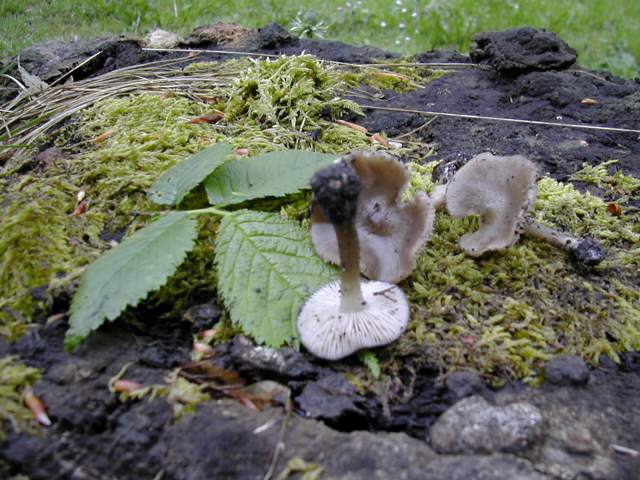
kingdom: Fungi
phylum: Basidiomycota
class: Agaricomycetes
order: Agaricales
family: Entolomataceae
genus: Entoloma
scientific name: Entoloma aprile
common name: maj-rødblad
